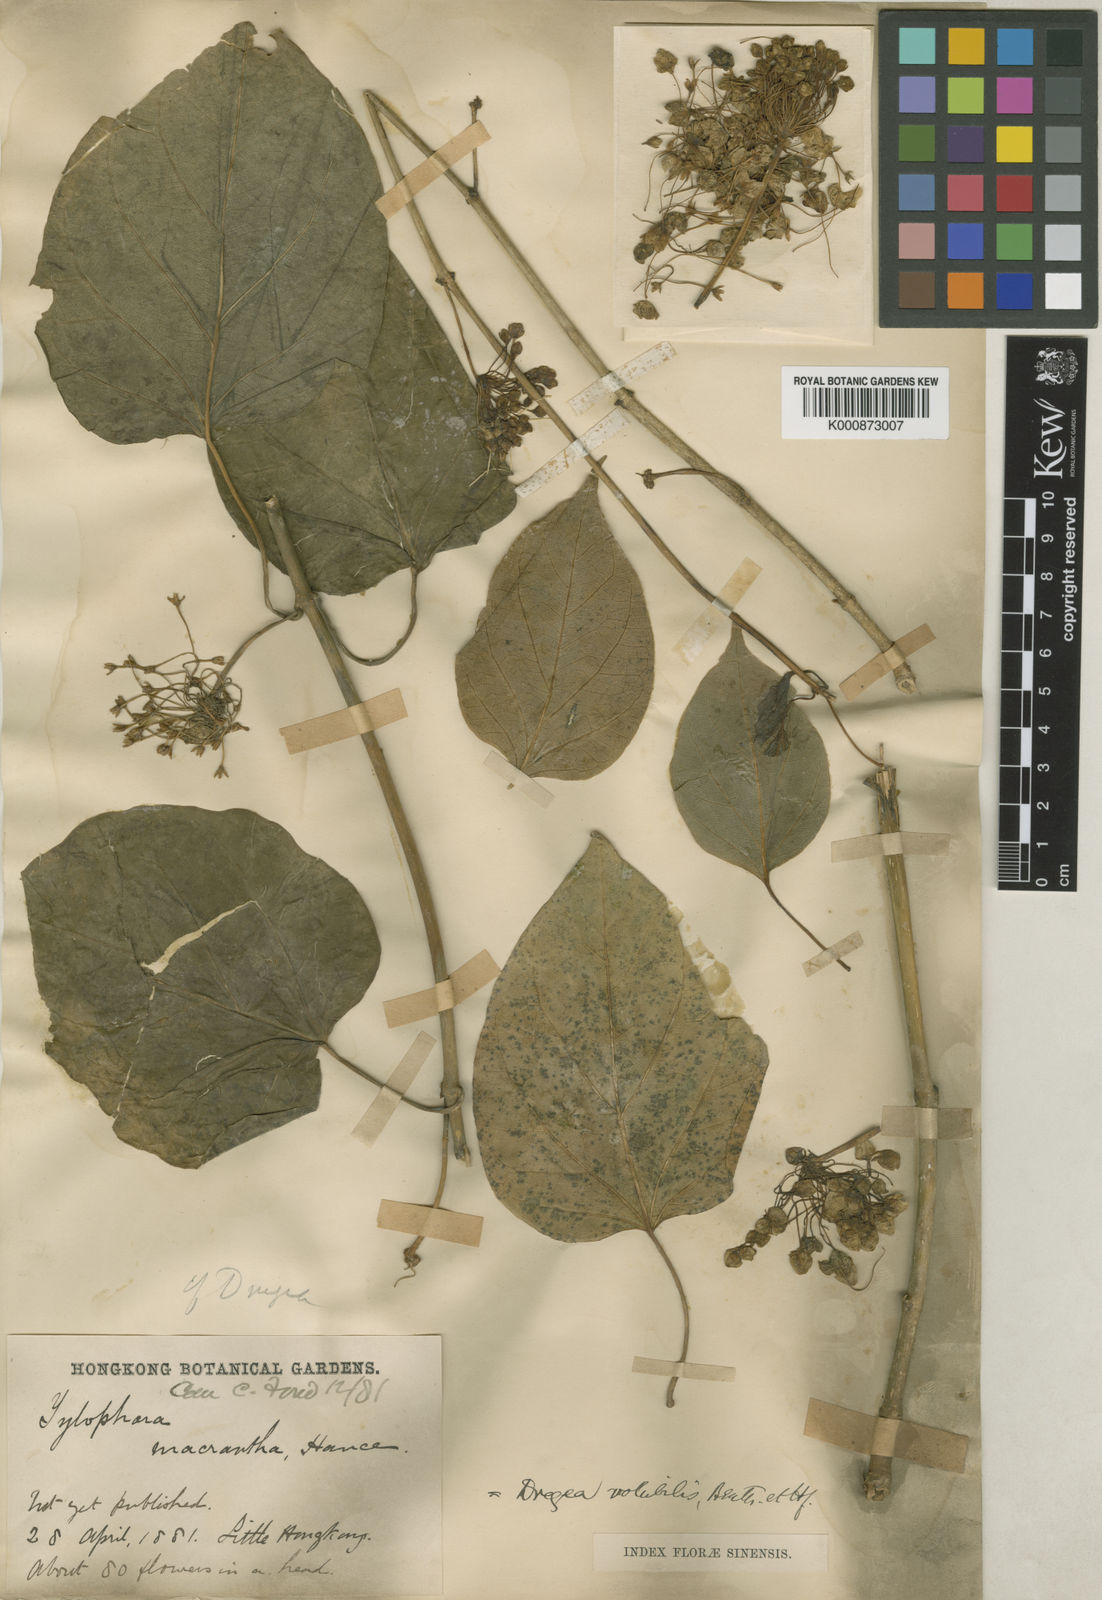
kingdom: Plantae
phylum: Tracheophyta
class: Magnoliopsida
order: Gentianales
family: Apocynaceae
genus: Stephanotis
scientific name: Stephanotis volubilis
